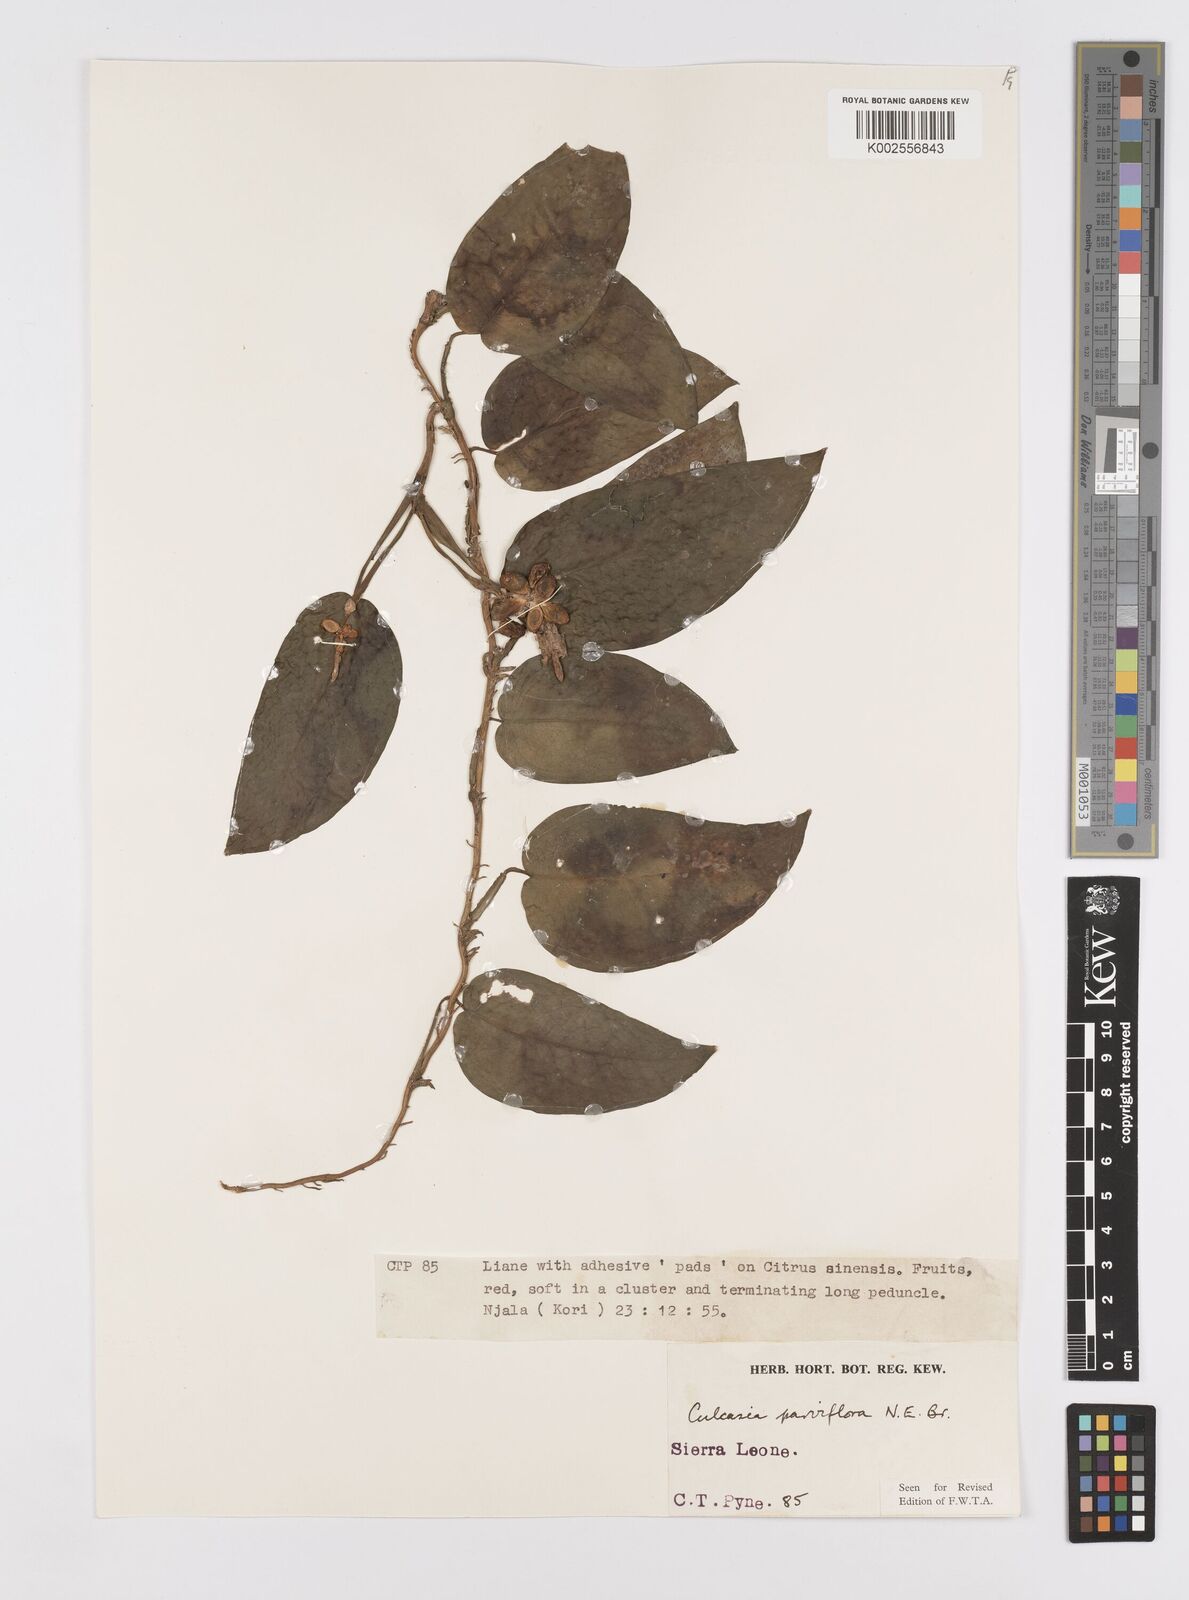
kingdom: Plantae
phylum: Tracheophyta
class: Liliopsida
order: Alismatales
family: Araceae
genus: Culcasia
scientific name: Culcasia parviflora
